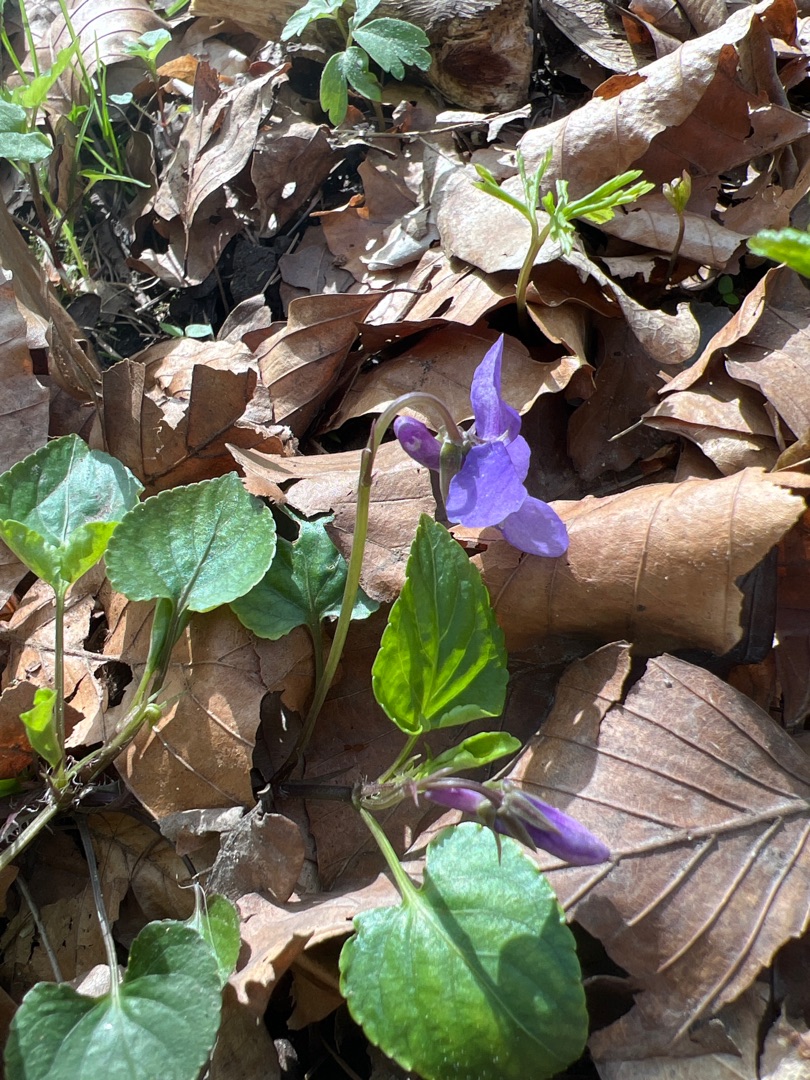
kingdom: Plantae
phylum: Tracheophyta
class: Magnoliopsida
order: Malpighiales
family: Violaceae
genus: Viola
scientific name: Viola reichenbachiana
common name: Skov-viol
